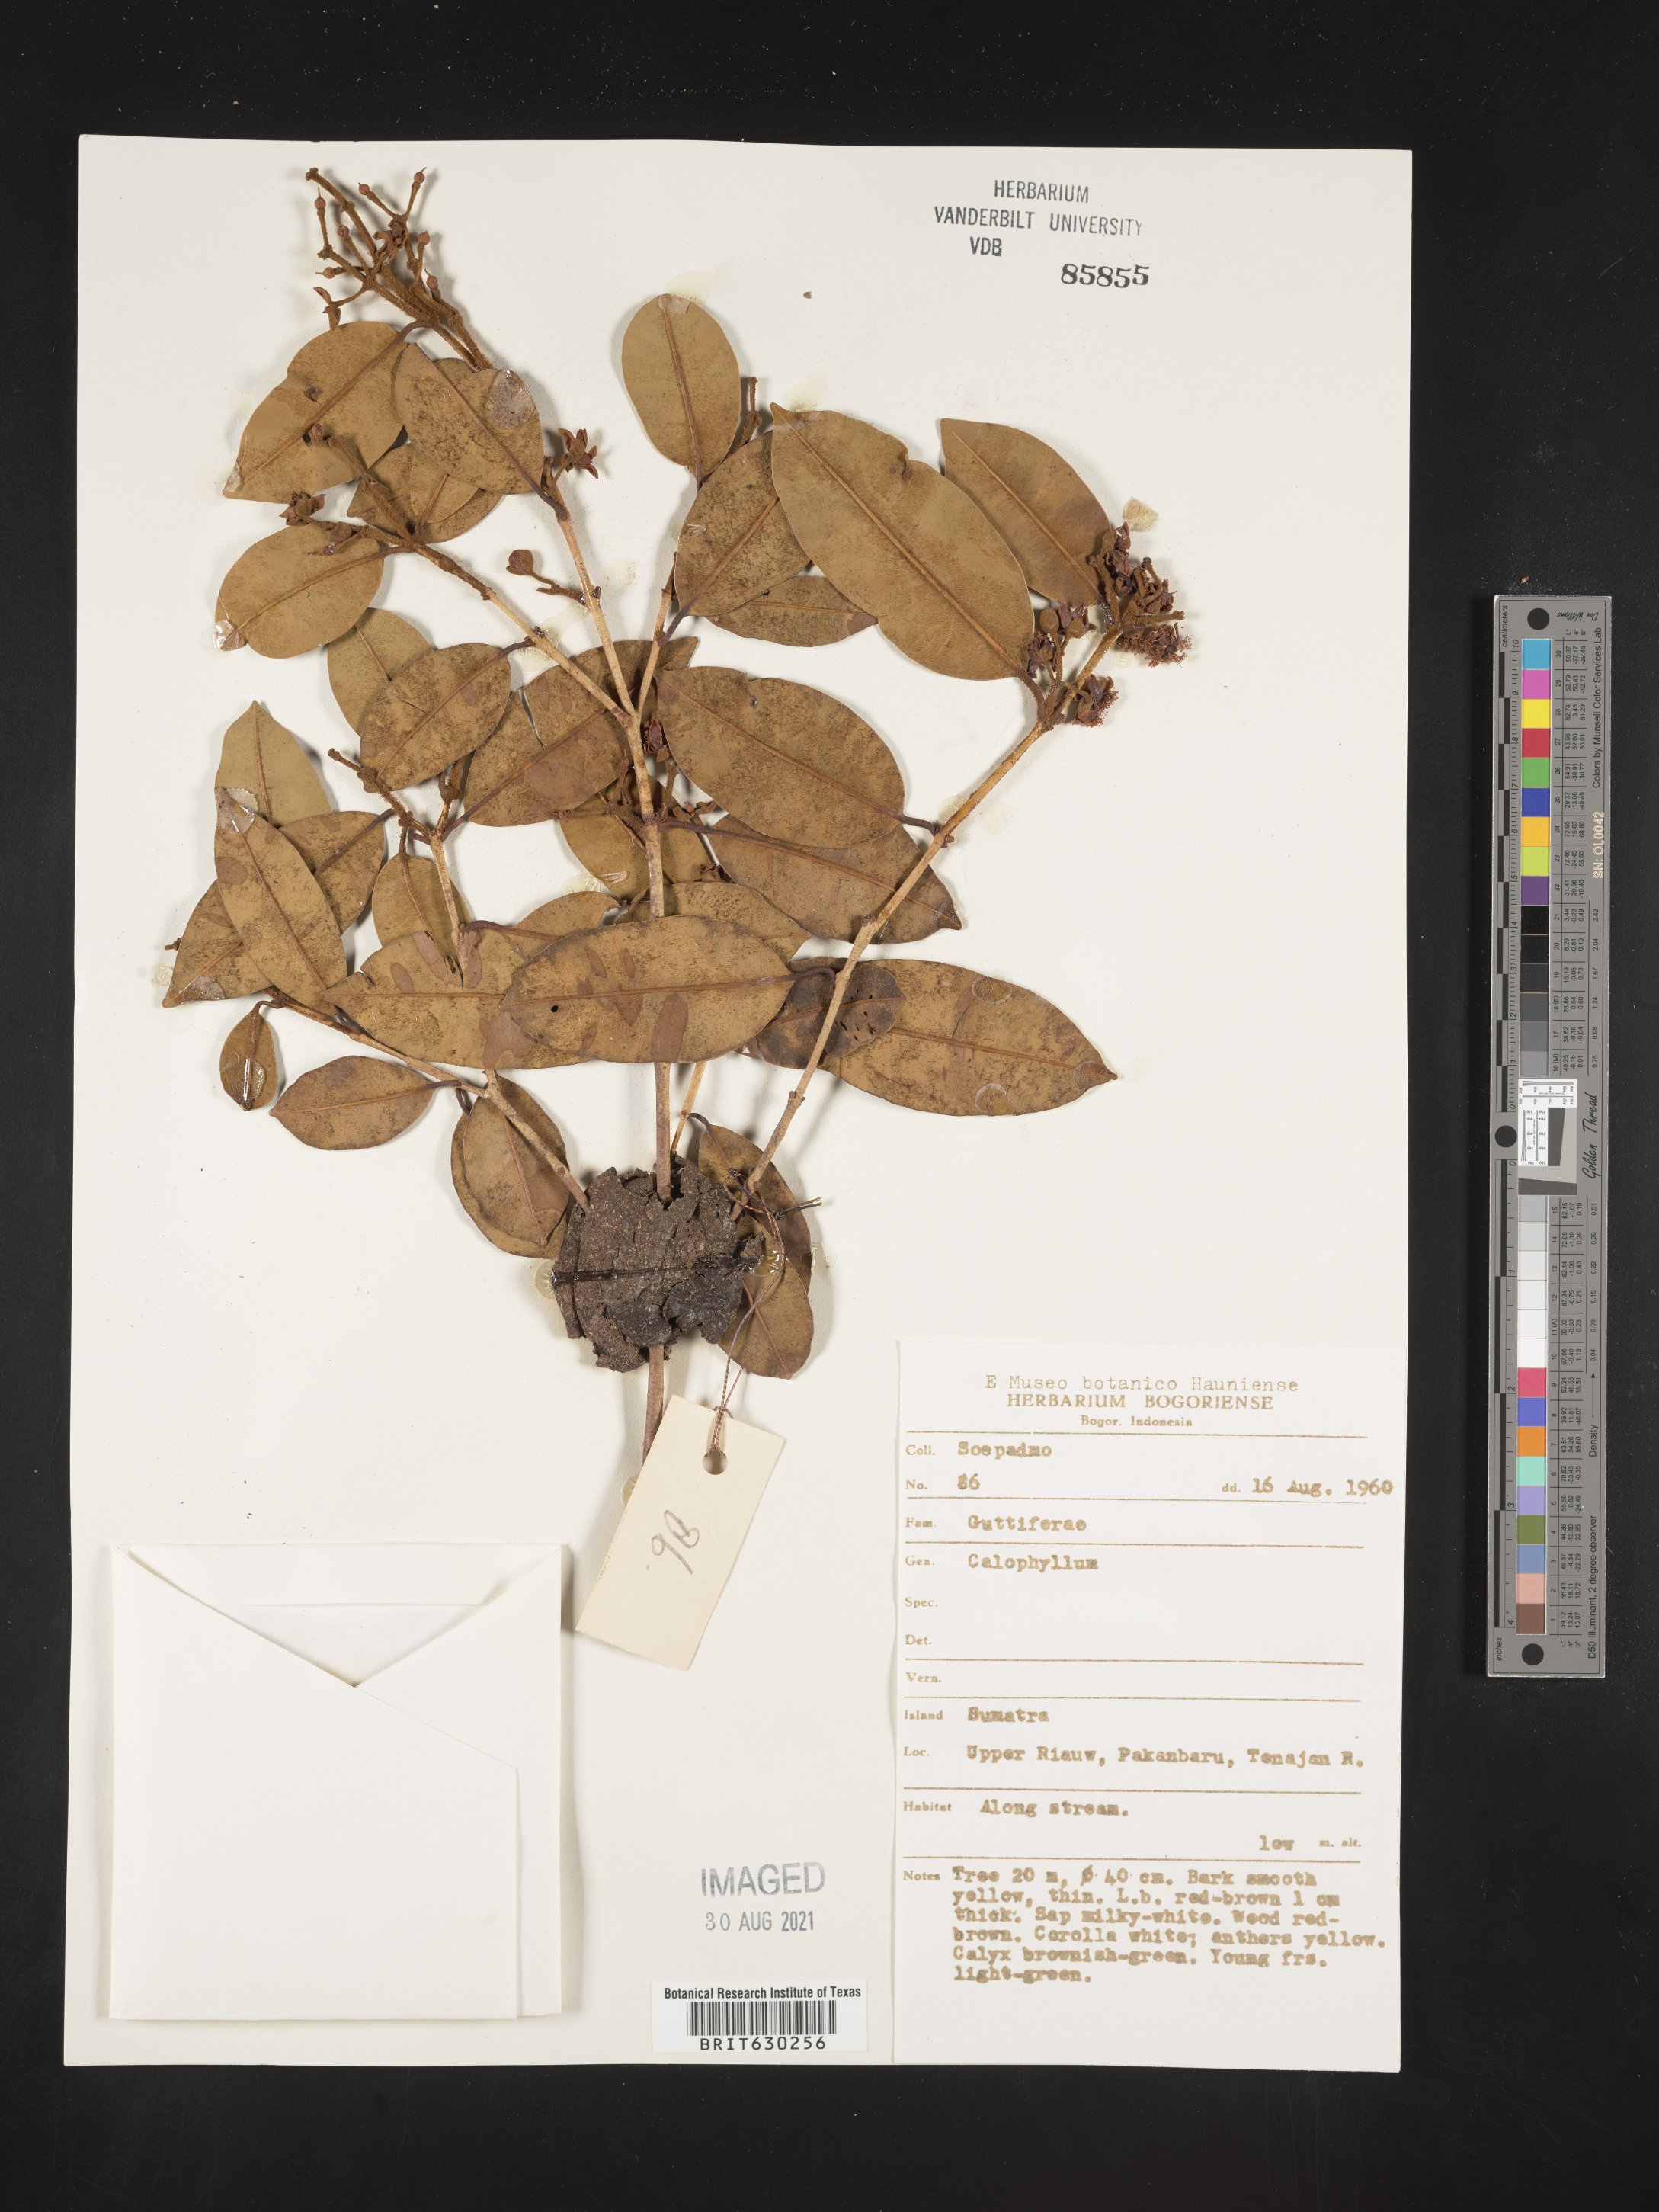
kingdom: Plantae
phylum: Tracheophyta
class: Magnoliopsida
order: Malpighiales
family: Calophyllaceae
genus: Calophyllum
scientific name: Calophyllum
